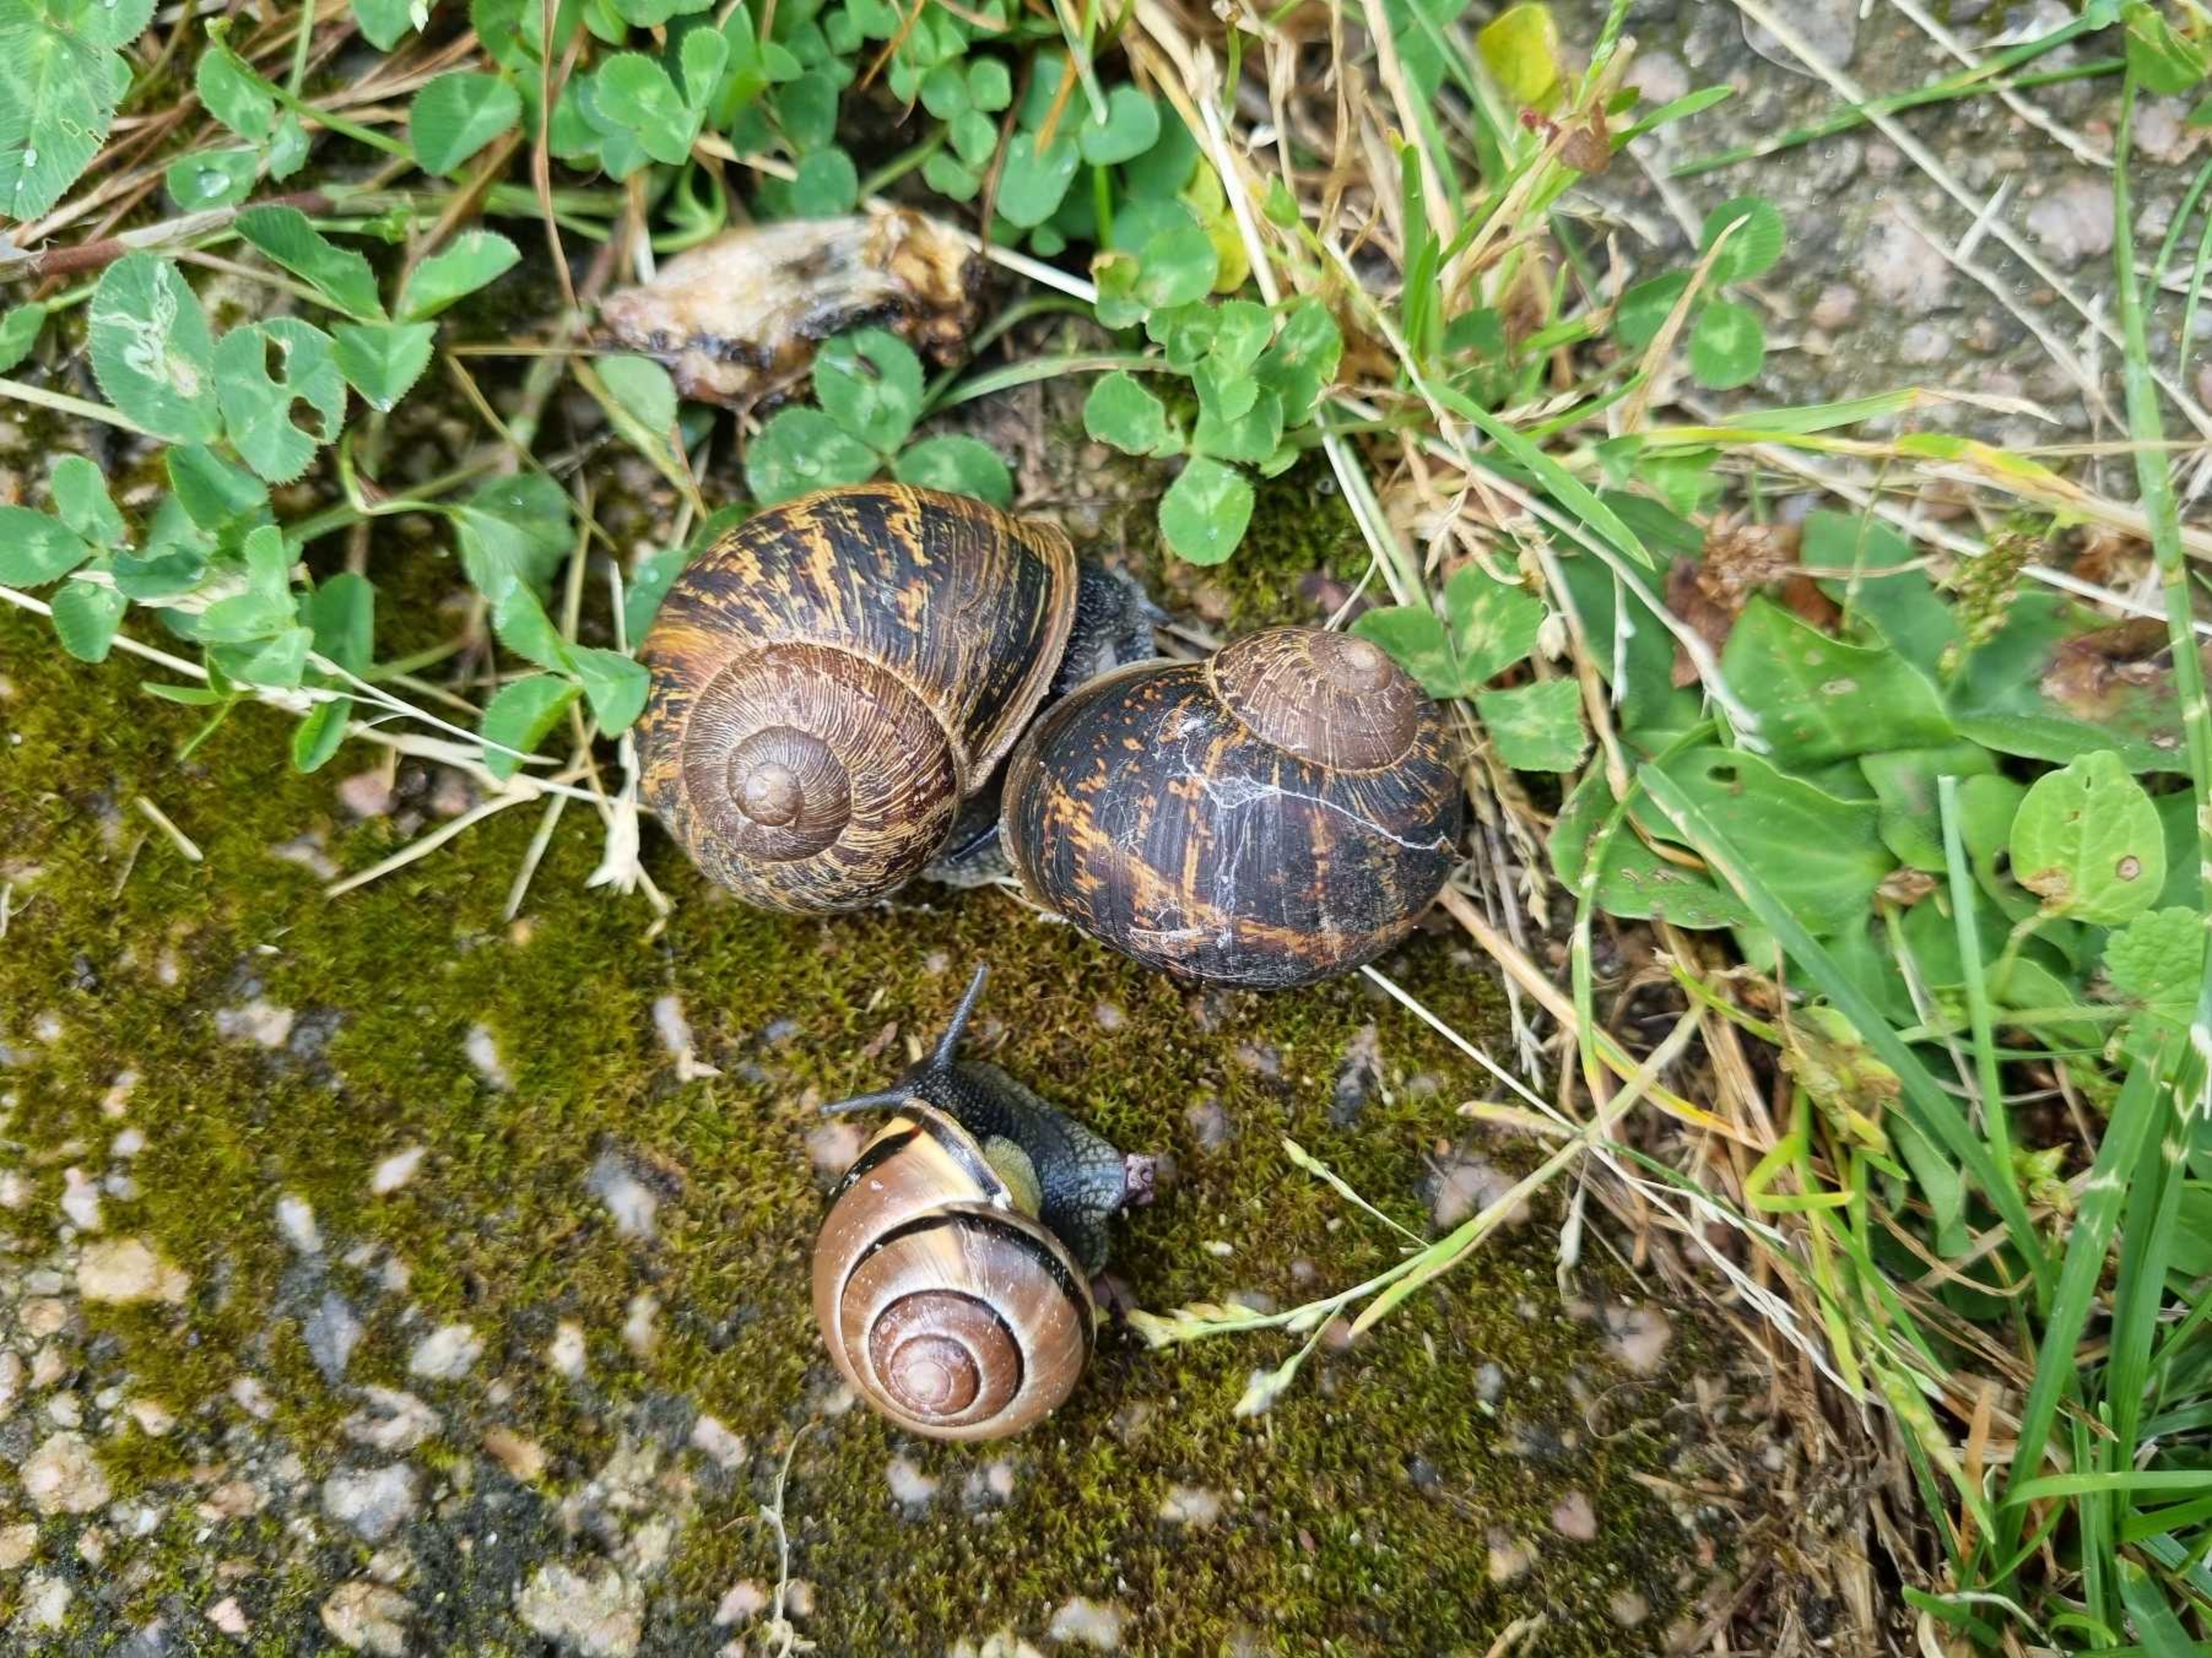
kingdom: Animalia
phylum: Mollusca
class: Gastropoda
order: Stylommatophora
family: Helicidae
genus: Cornu
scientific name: Cornu aspersum
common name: Plettet voldsnegl
